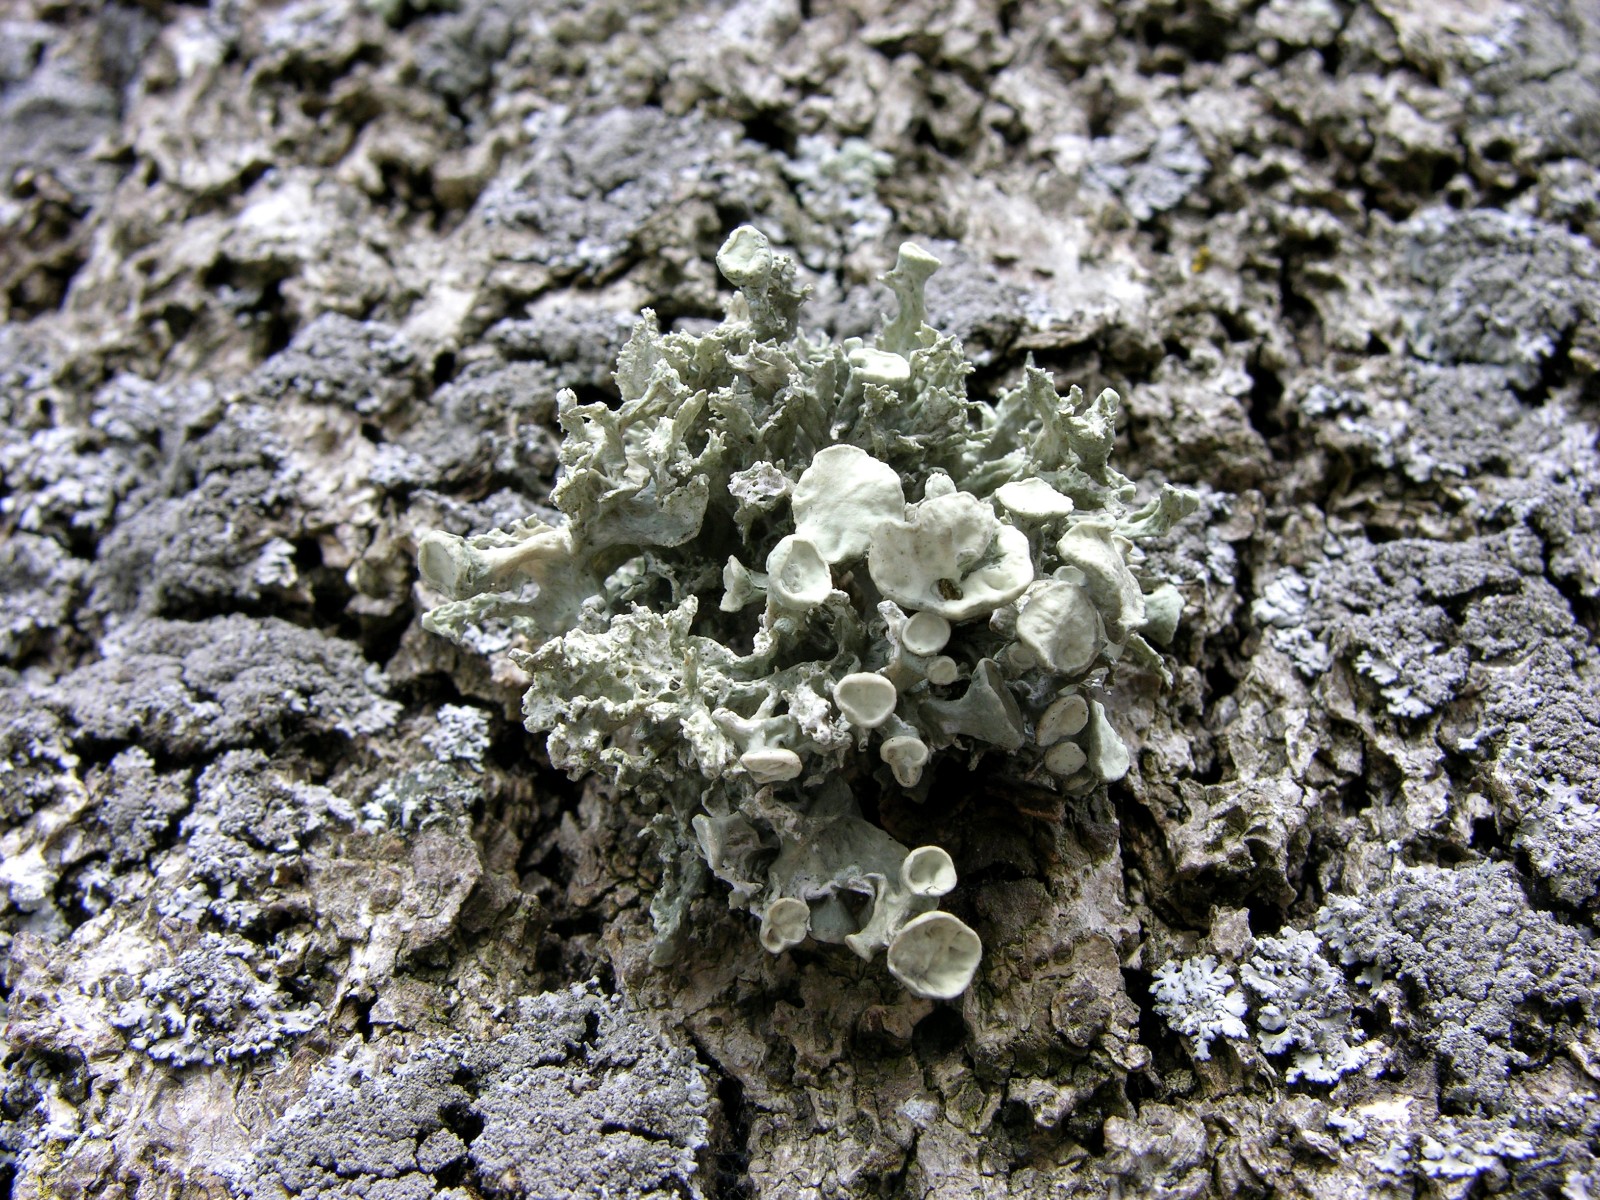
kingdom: Fungi
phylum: Ascomycota
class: Lecanoromycetes
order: Lecanorales
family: Ramalinaceae
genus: Ramalina
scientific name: Ramalina fastigiata
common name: tue-grenlav
